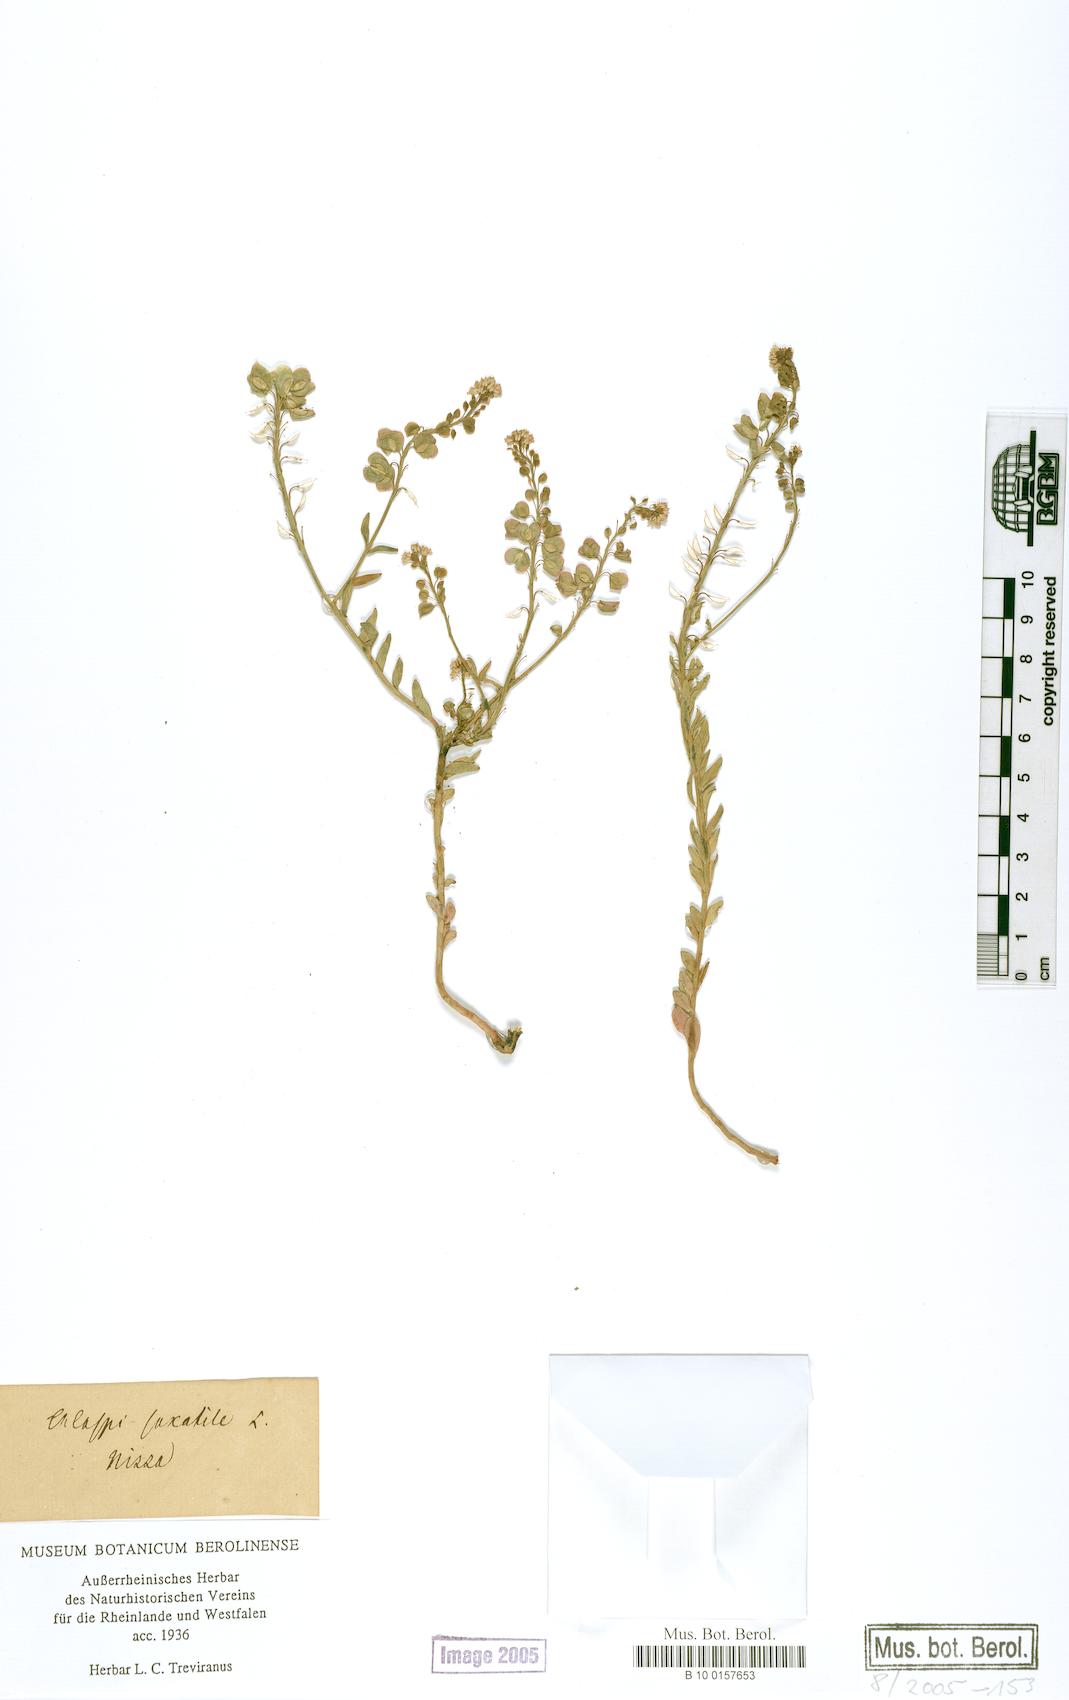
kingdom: Plantae
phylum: Tracheophyta
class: Magnoliopsida
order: Brassicales
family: Brassicaceae
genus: Aethionema
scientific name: Aethionema saxatile
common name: Burnt candytuft
